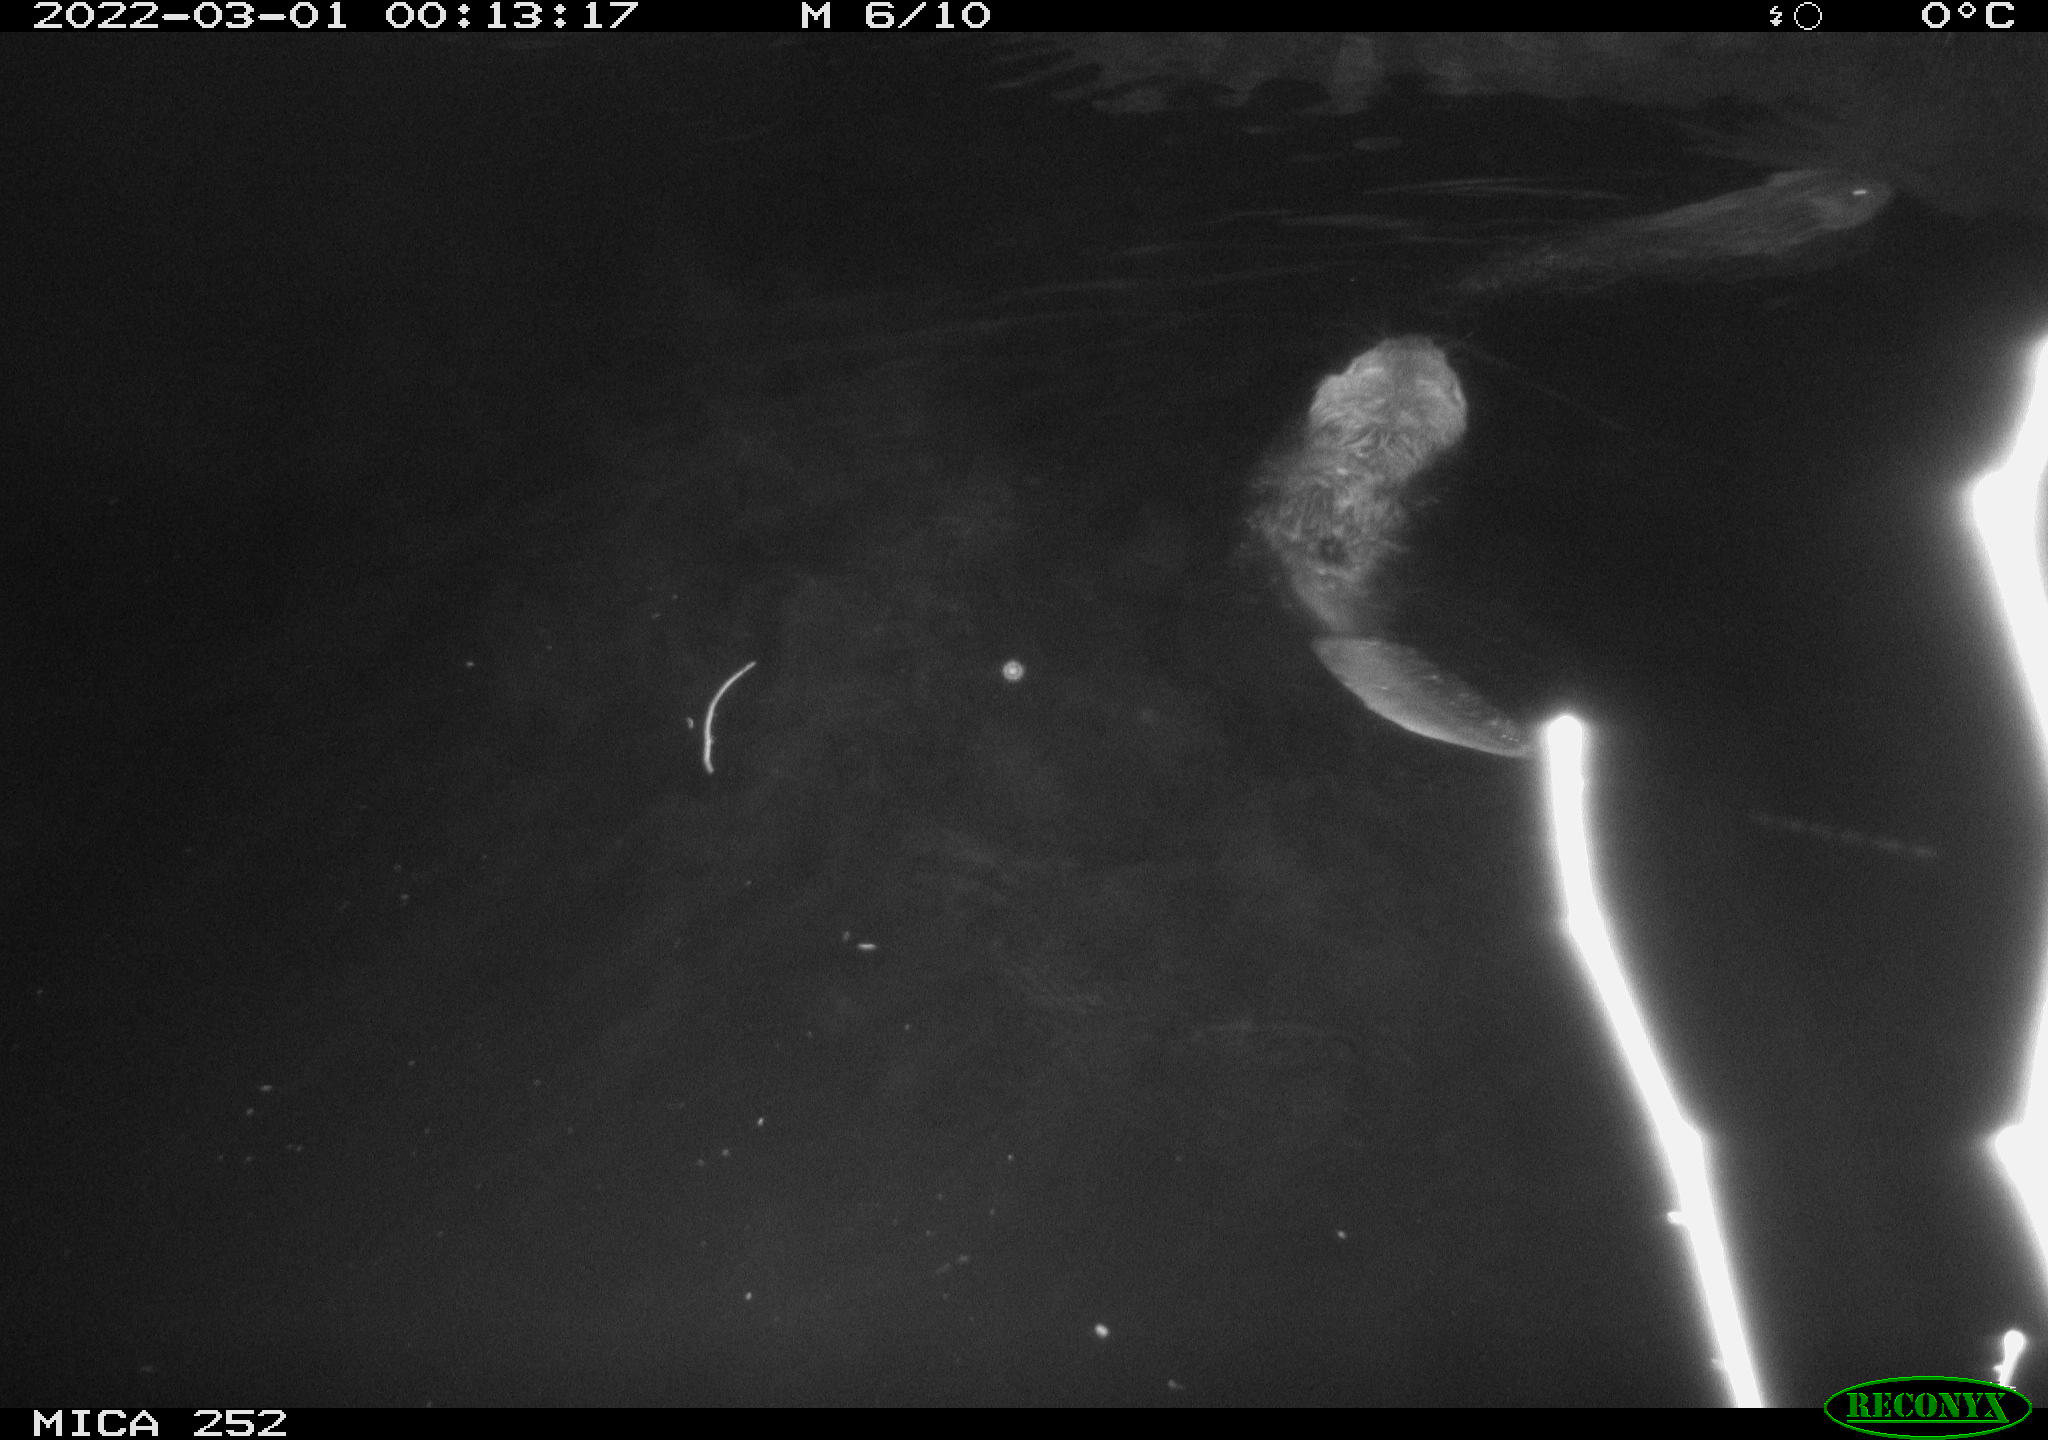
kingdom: Animalia
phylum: Chordata
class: Mammalia
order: Rodentia
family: Castoridae
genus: Castor
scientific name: Castor fiber
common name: Eurasian beaver
